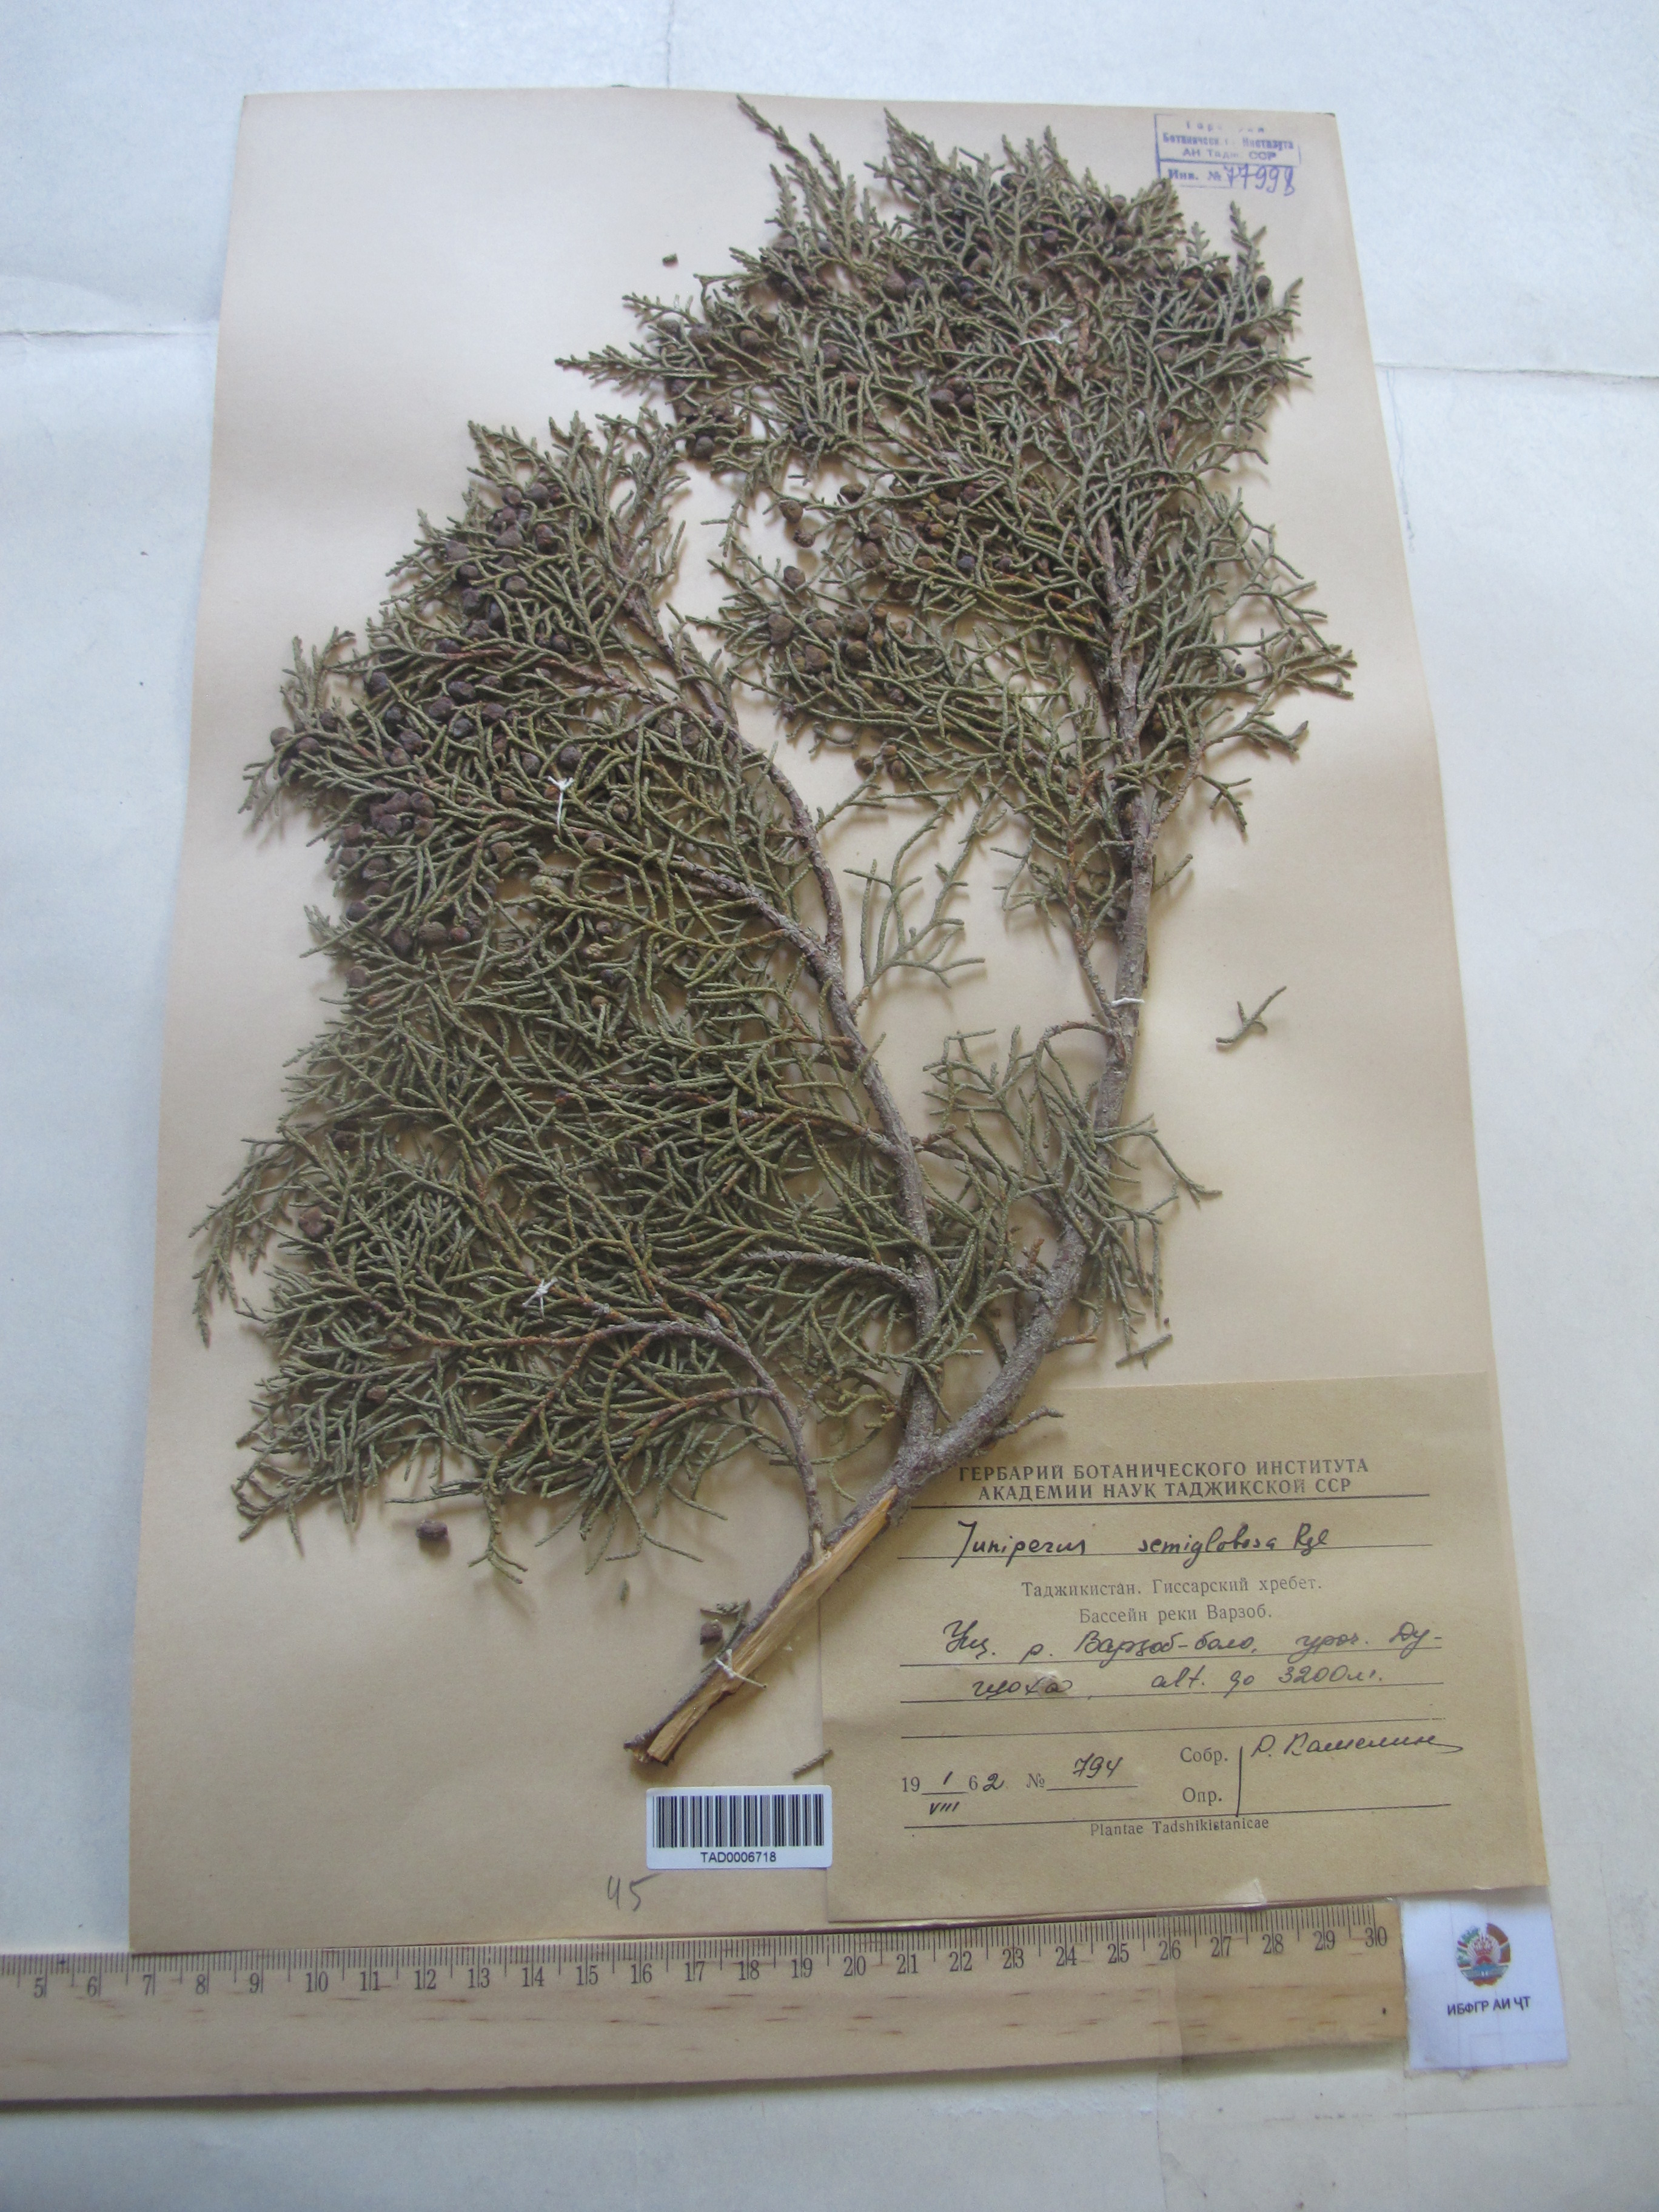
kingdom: Plantae
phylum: Tracheophyta
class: Pinopsida
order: Pinales
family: Cupressaceae
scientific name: Cupressaceae
